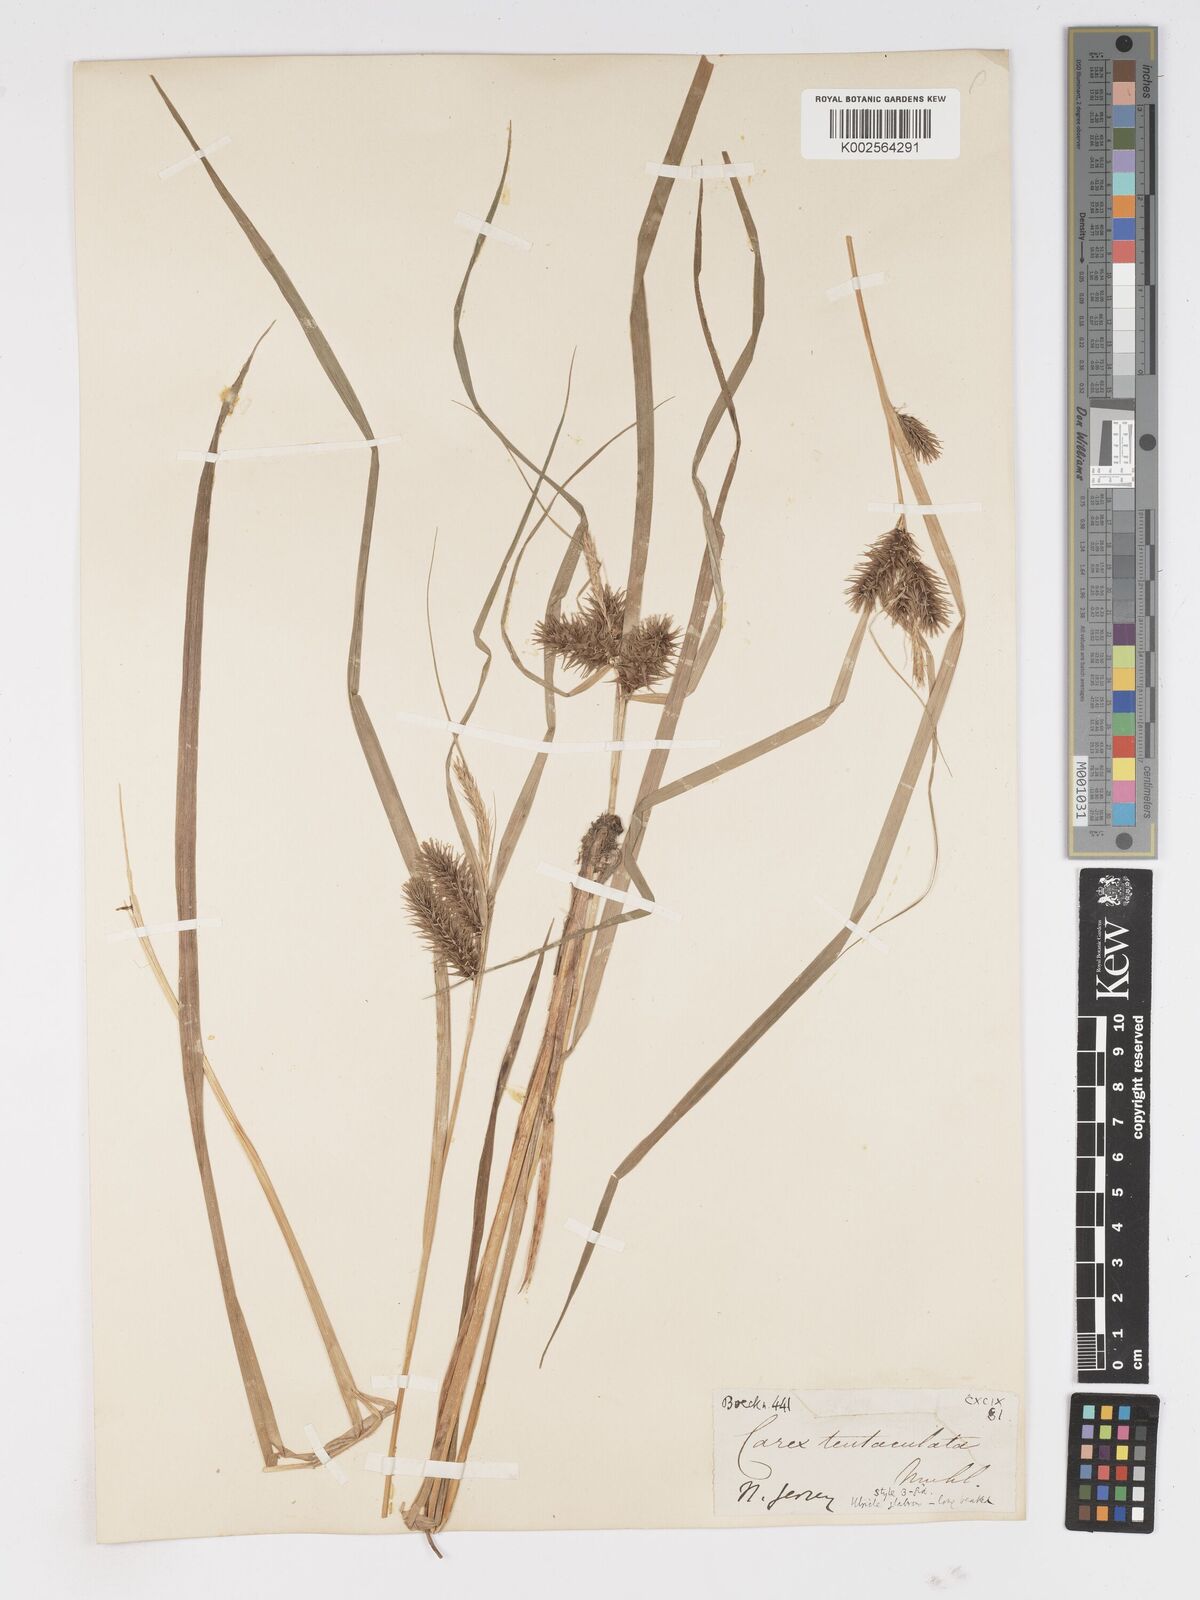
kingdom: Plantae
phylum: Tracheophyta
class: Liliopsida
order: Poales
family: Cyperaceae
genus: Carex
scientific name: Carex lurida
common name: Sallow sedge
